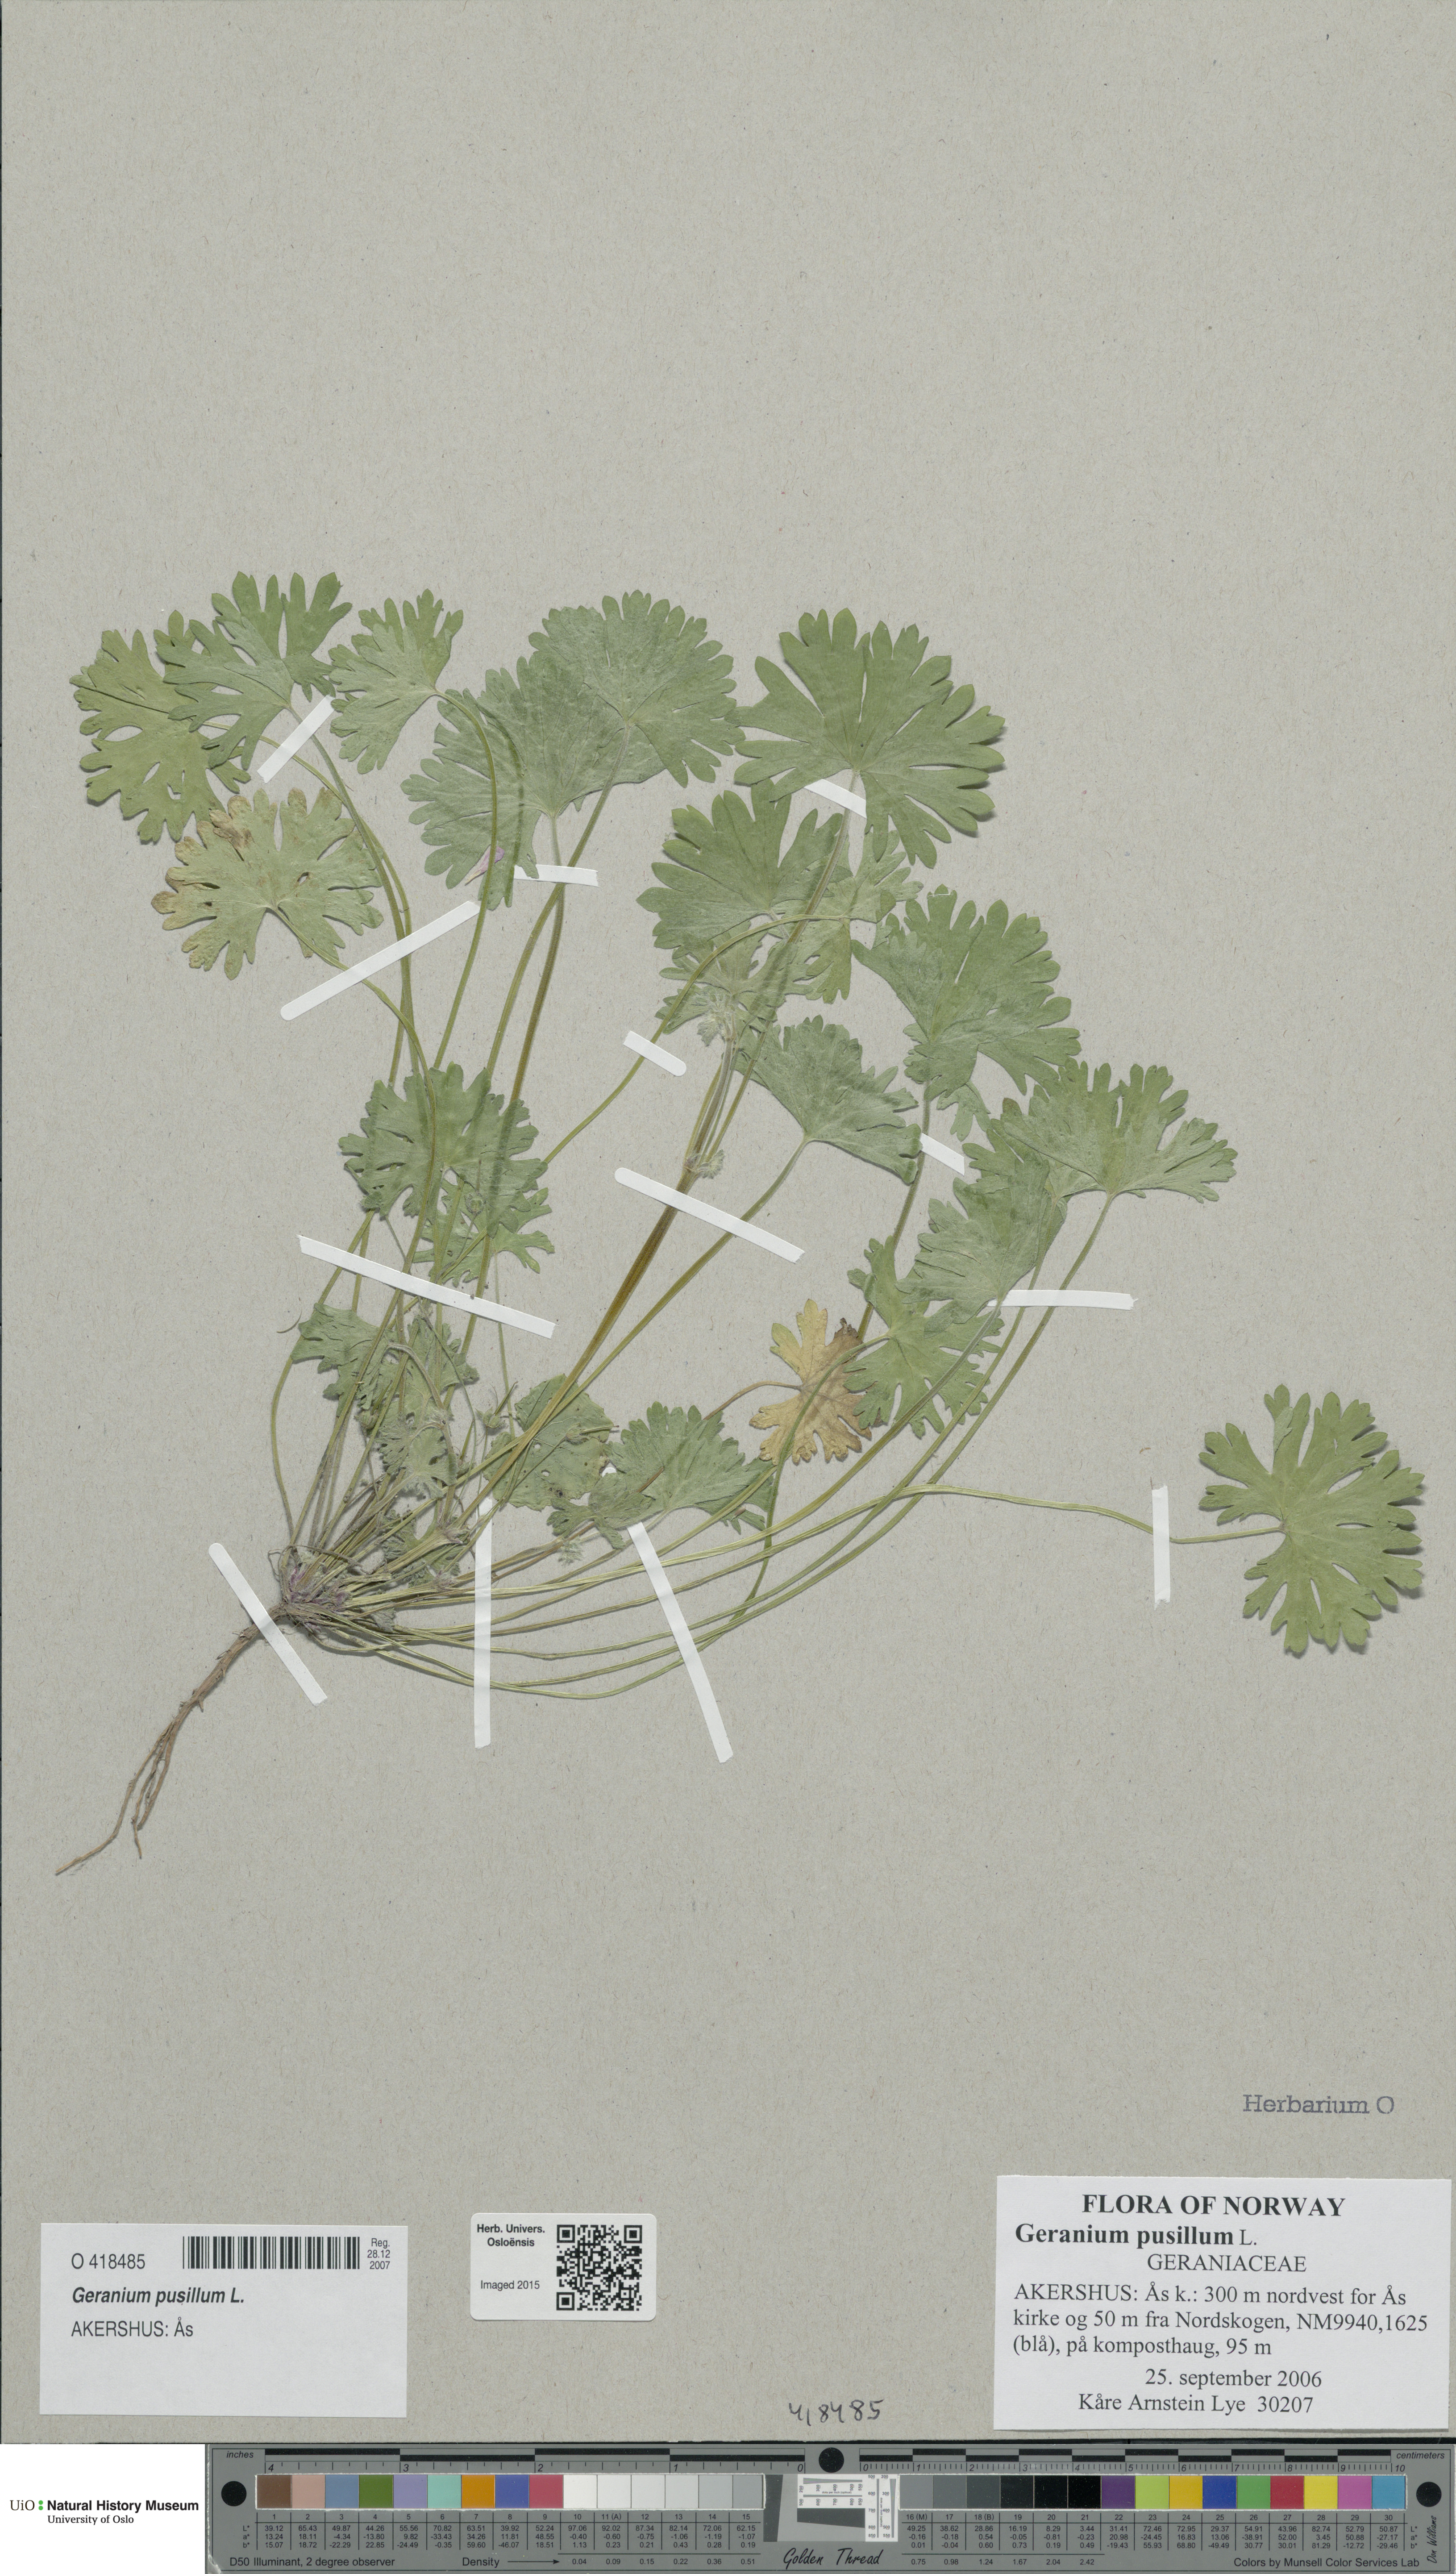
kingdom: Plantae
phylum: Tracheophyta
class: Magnoliopsida
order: Geraniales
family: Geraniaceae
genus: Geranium
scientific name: Geranium pusillum
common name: Small geranium
